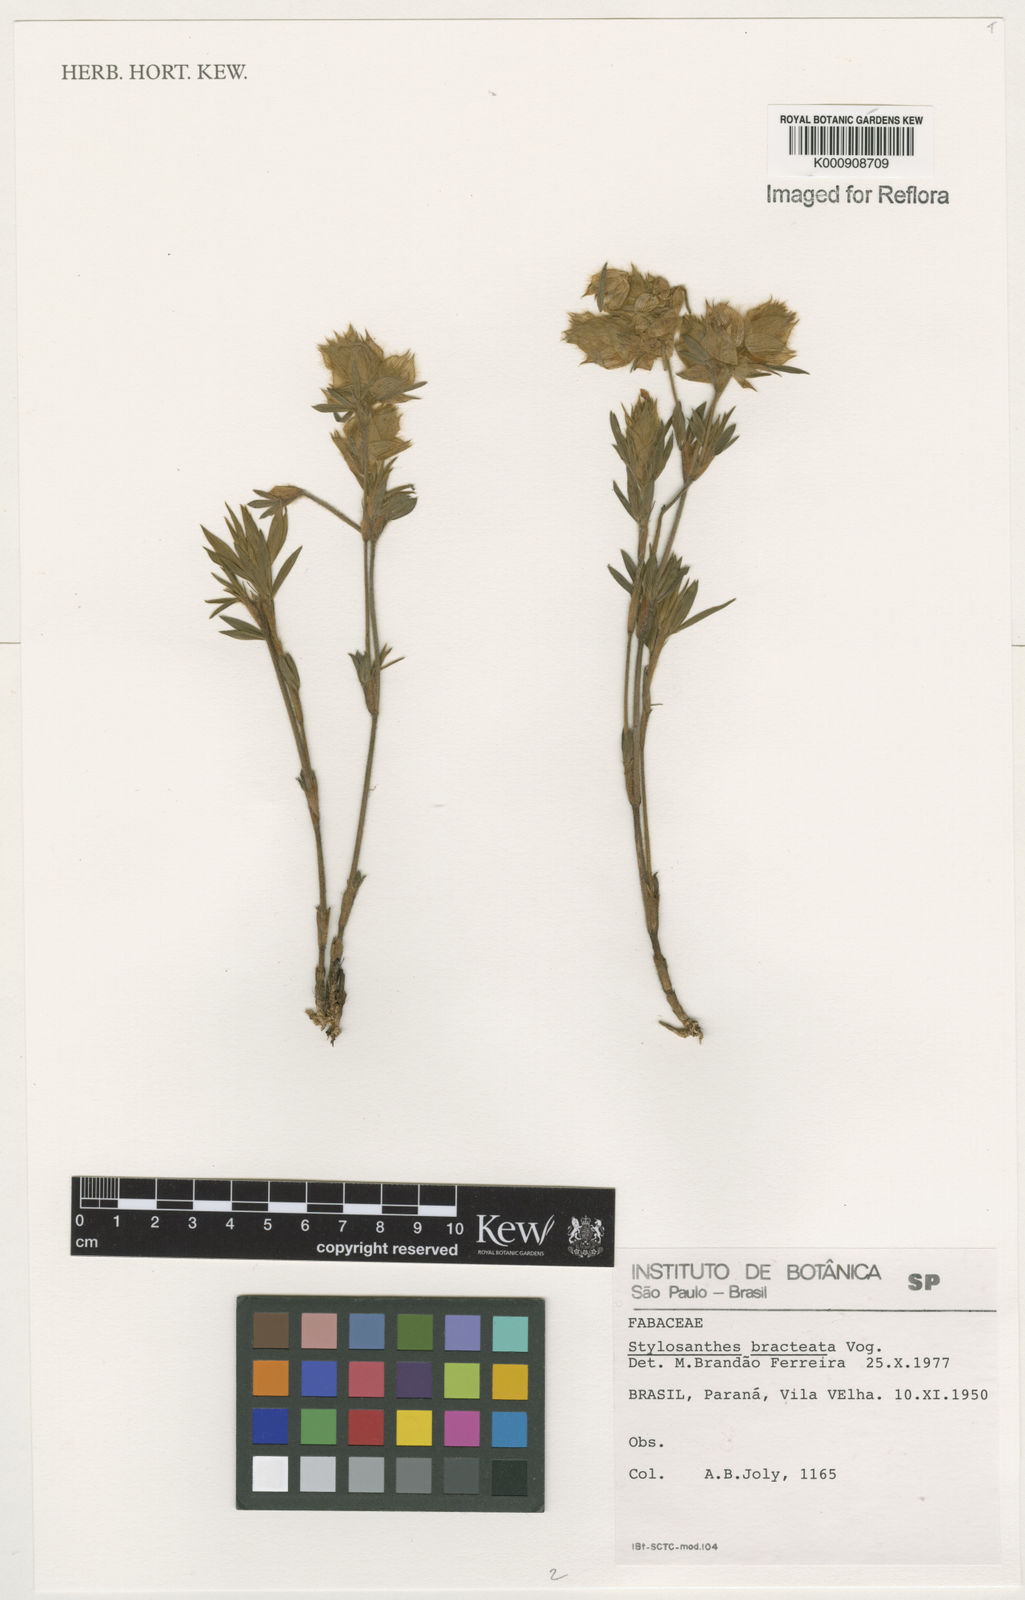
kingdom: Plantae
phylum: Tracheophyta
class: Magnoliopsida
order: Fabales
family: Fabaceae
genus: Stylosanthes
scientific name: Stylosanthes bracteata
